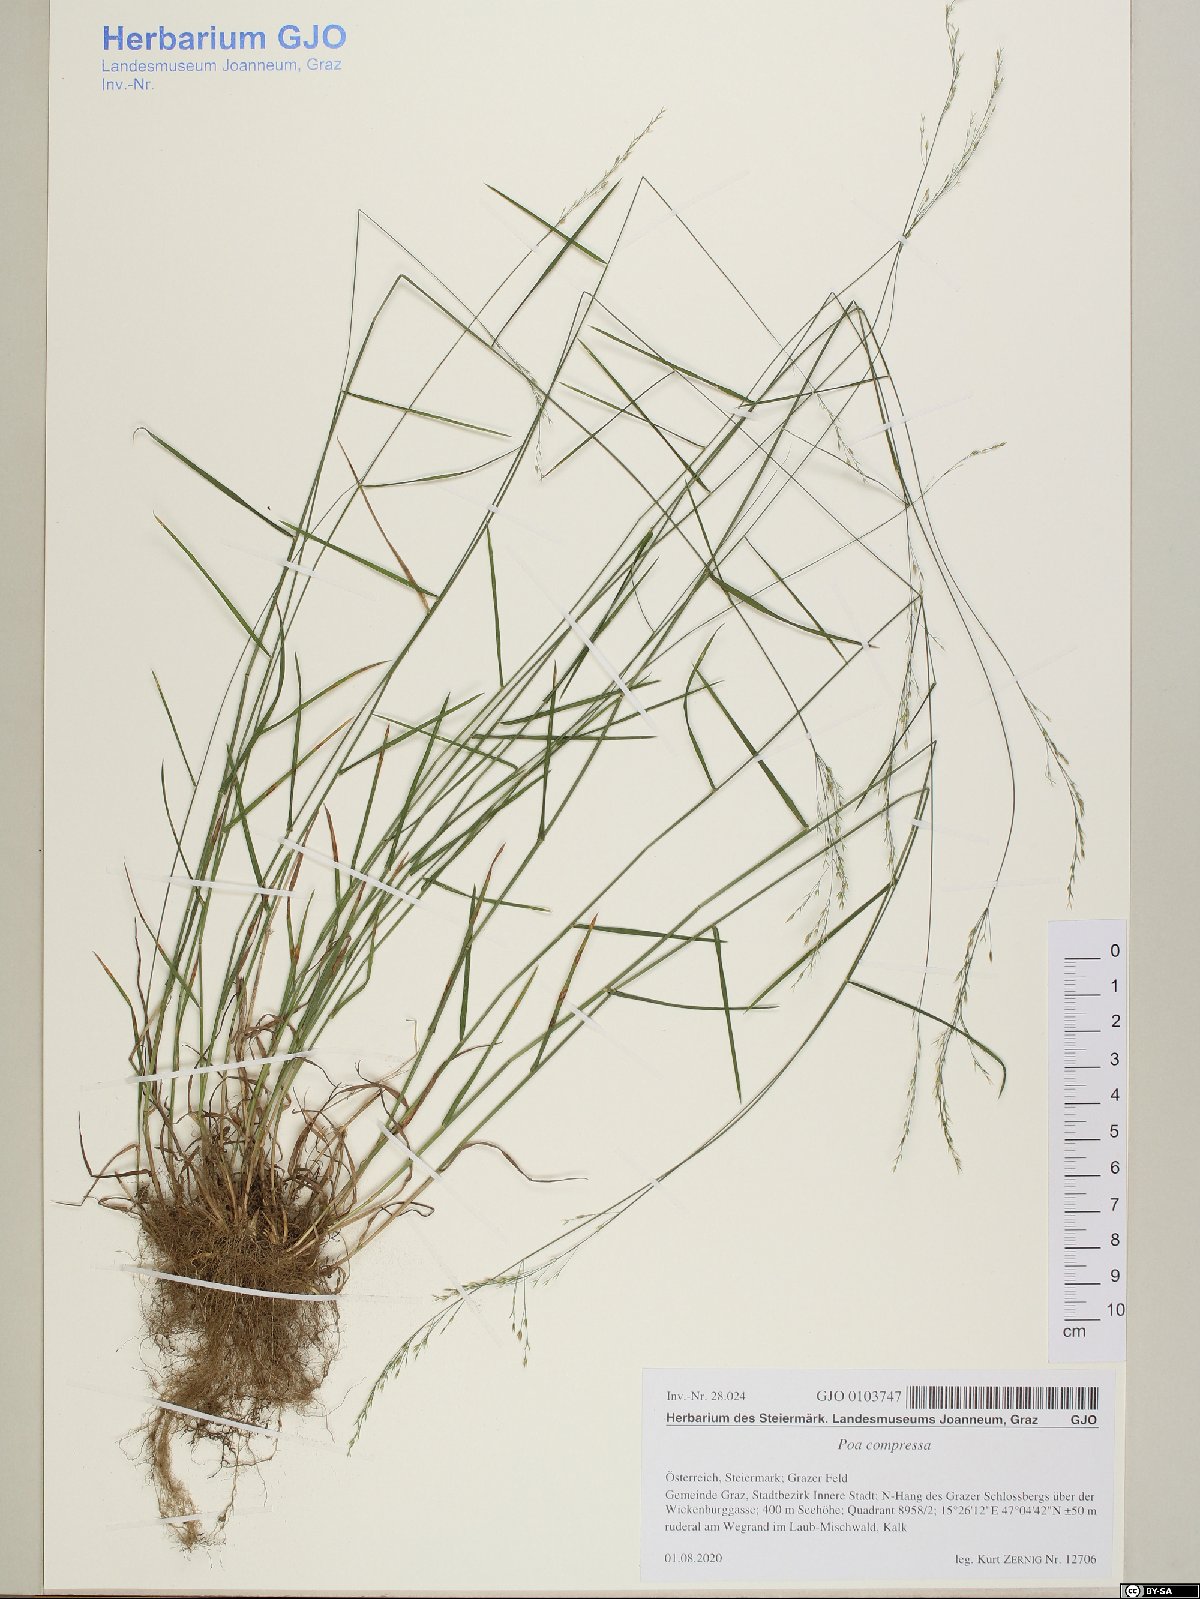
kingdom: Plantae
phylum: Tracheophyta
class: Liliopsida
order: Poales
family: Poaceae
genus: Poa
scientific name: Poa compressa
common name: Canada bluegrass
